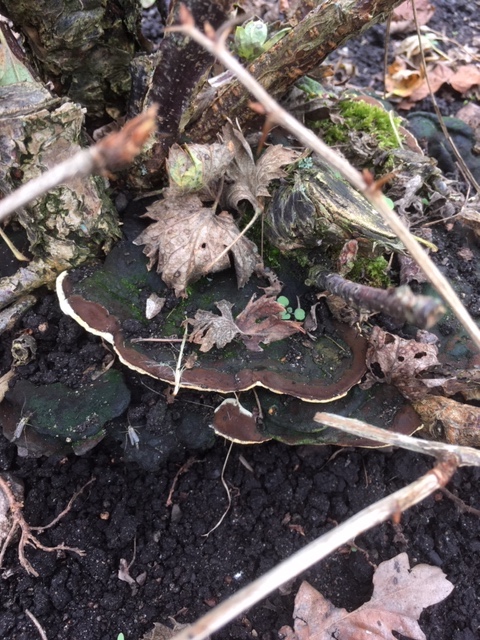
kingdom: Fungi
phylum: Basidiomycota
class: Agaricomycetes
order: Hymenochaetales
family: Hymenochaetaceae
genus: Phylloporia
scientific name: Phylloporia ribis
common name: ribs-ildporesvamp
